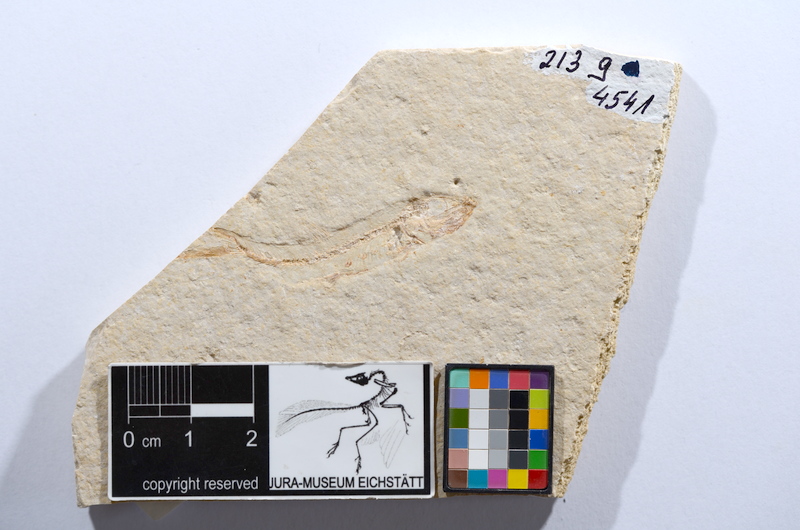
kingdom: Animalia
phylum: Chordata
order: Salmoniformes
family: Orthogonikleithridae
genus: Leptolepides
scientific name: Leptolepides sprattiformis
